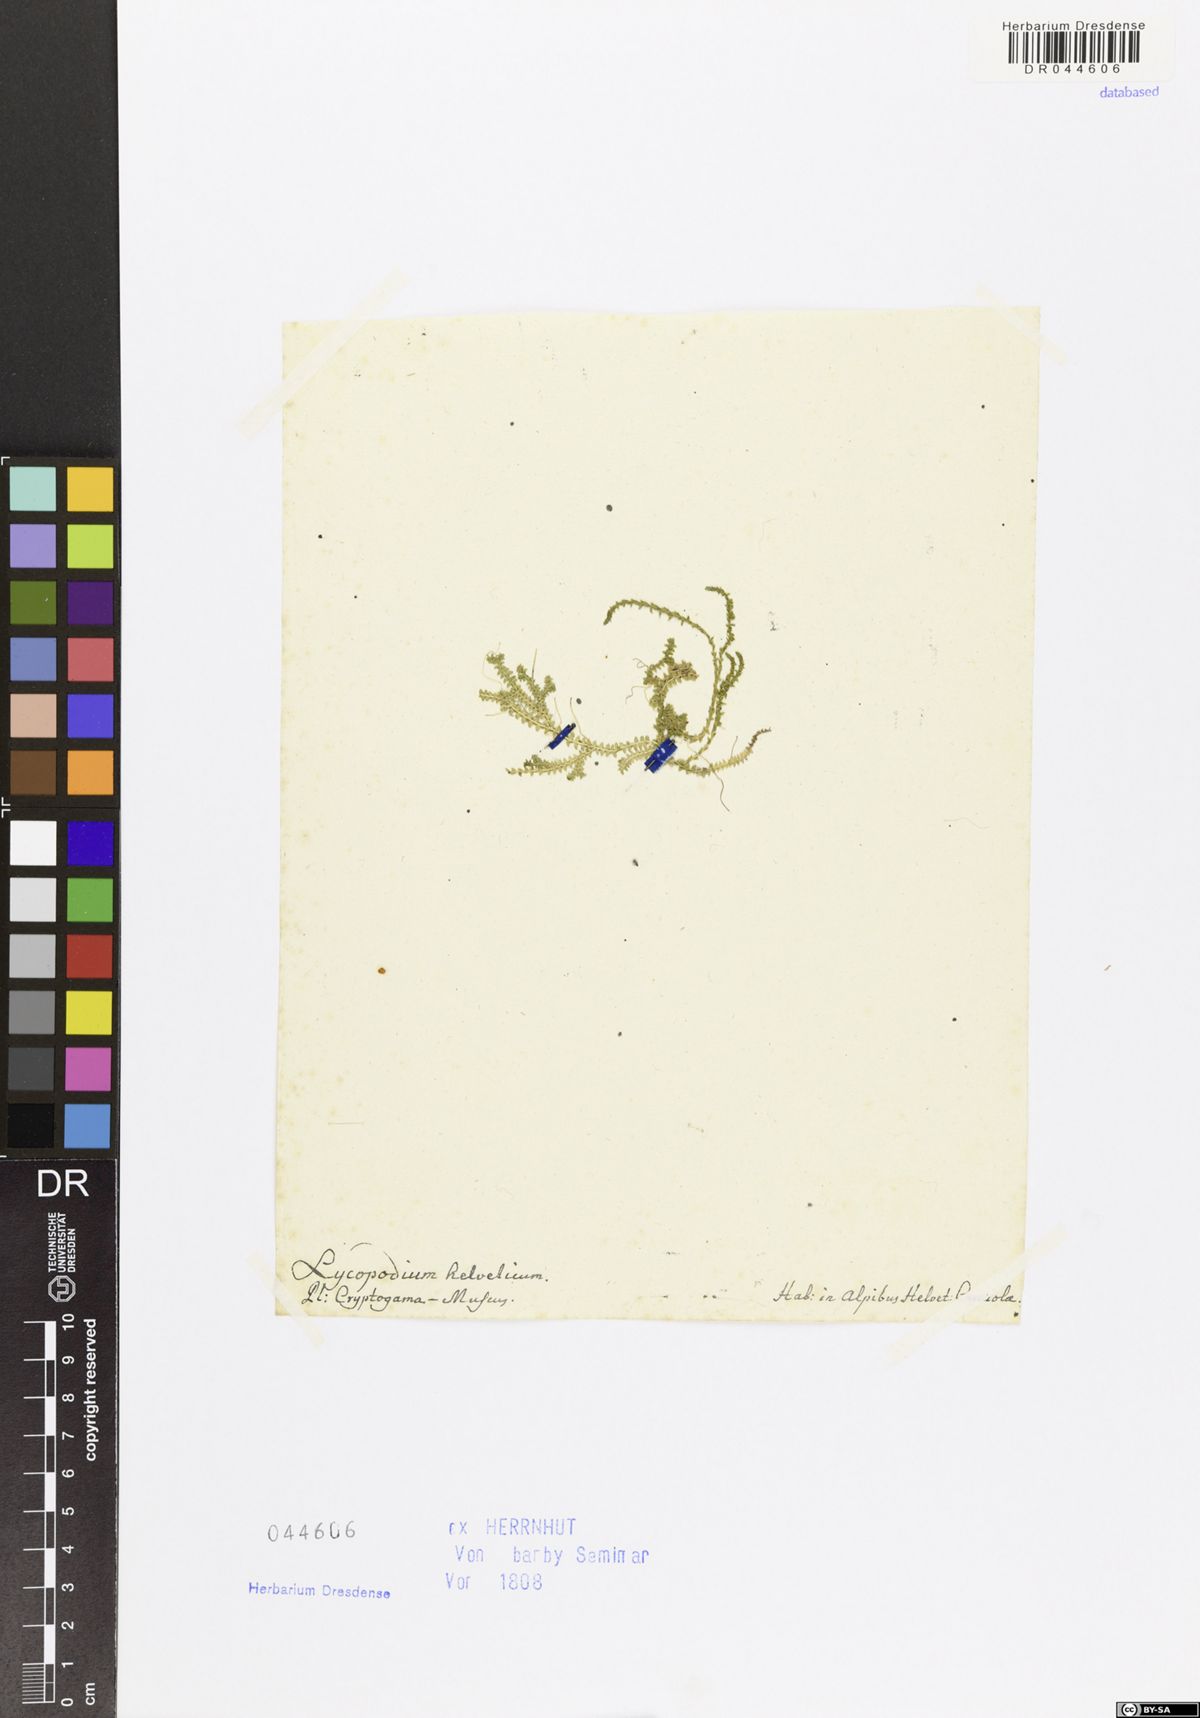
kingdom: Plantae
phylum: Tracheophyta
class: Lycopodiopsida
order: Selaginellales
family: Selaginellaceae
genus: Selaginella
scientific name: Selaginella helvetica
